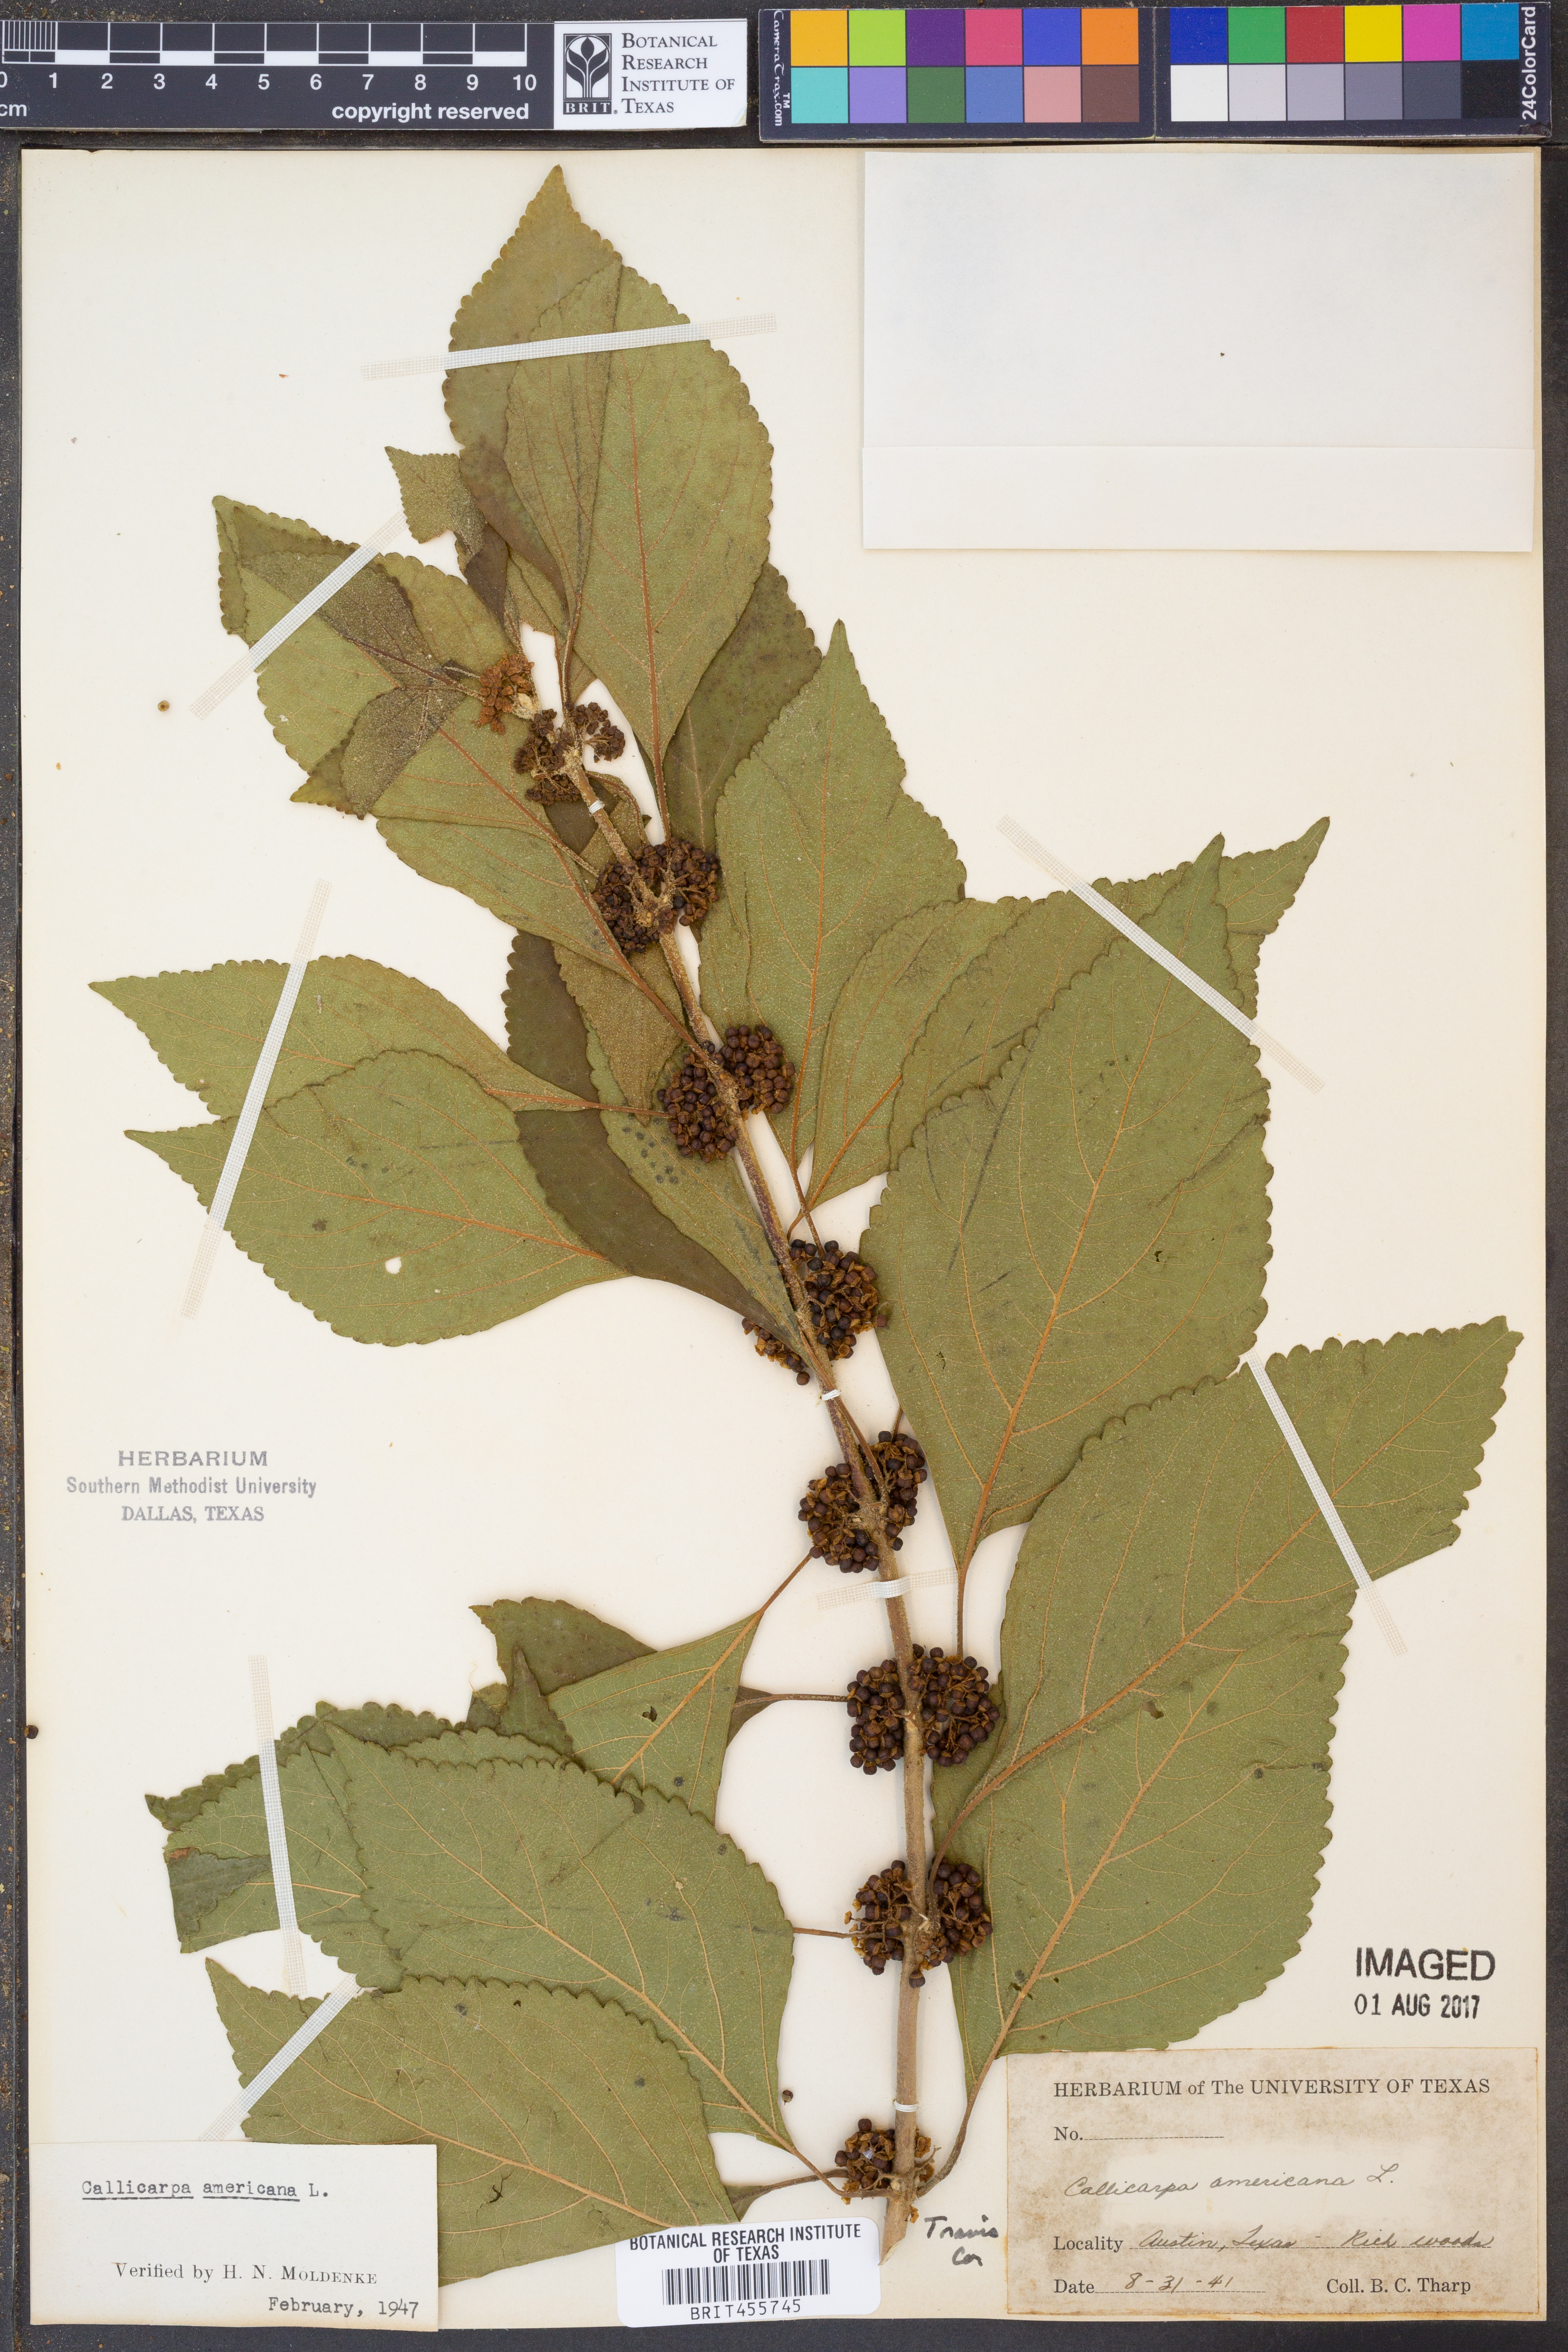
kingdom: Plantae
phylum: Tracheophyta
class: Magnoliopsida
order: Lamiales
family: Lamiaceae
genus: Callicarpa
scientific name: Callicarpa americana
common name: American beautyberry
